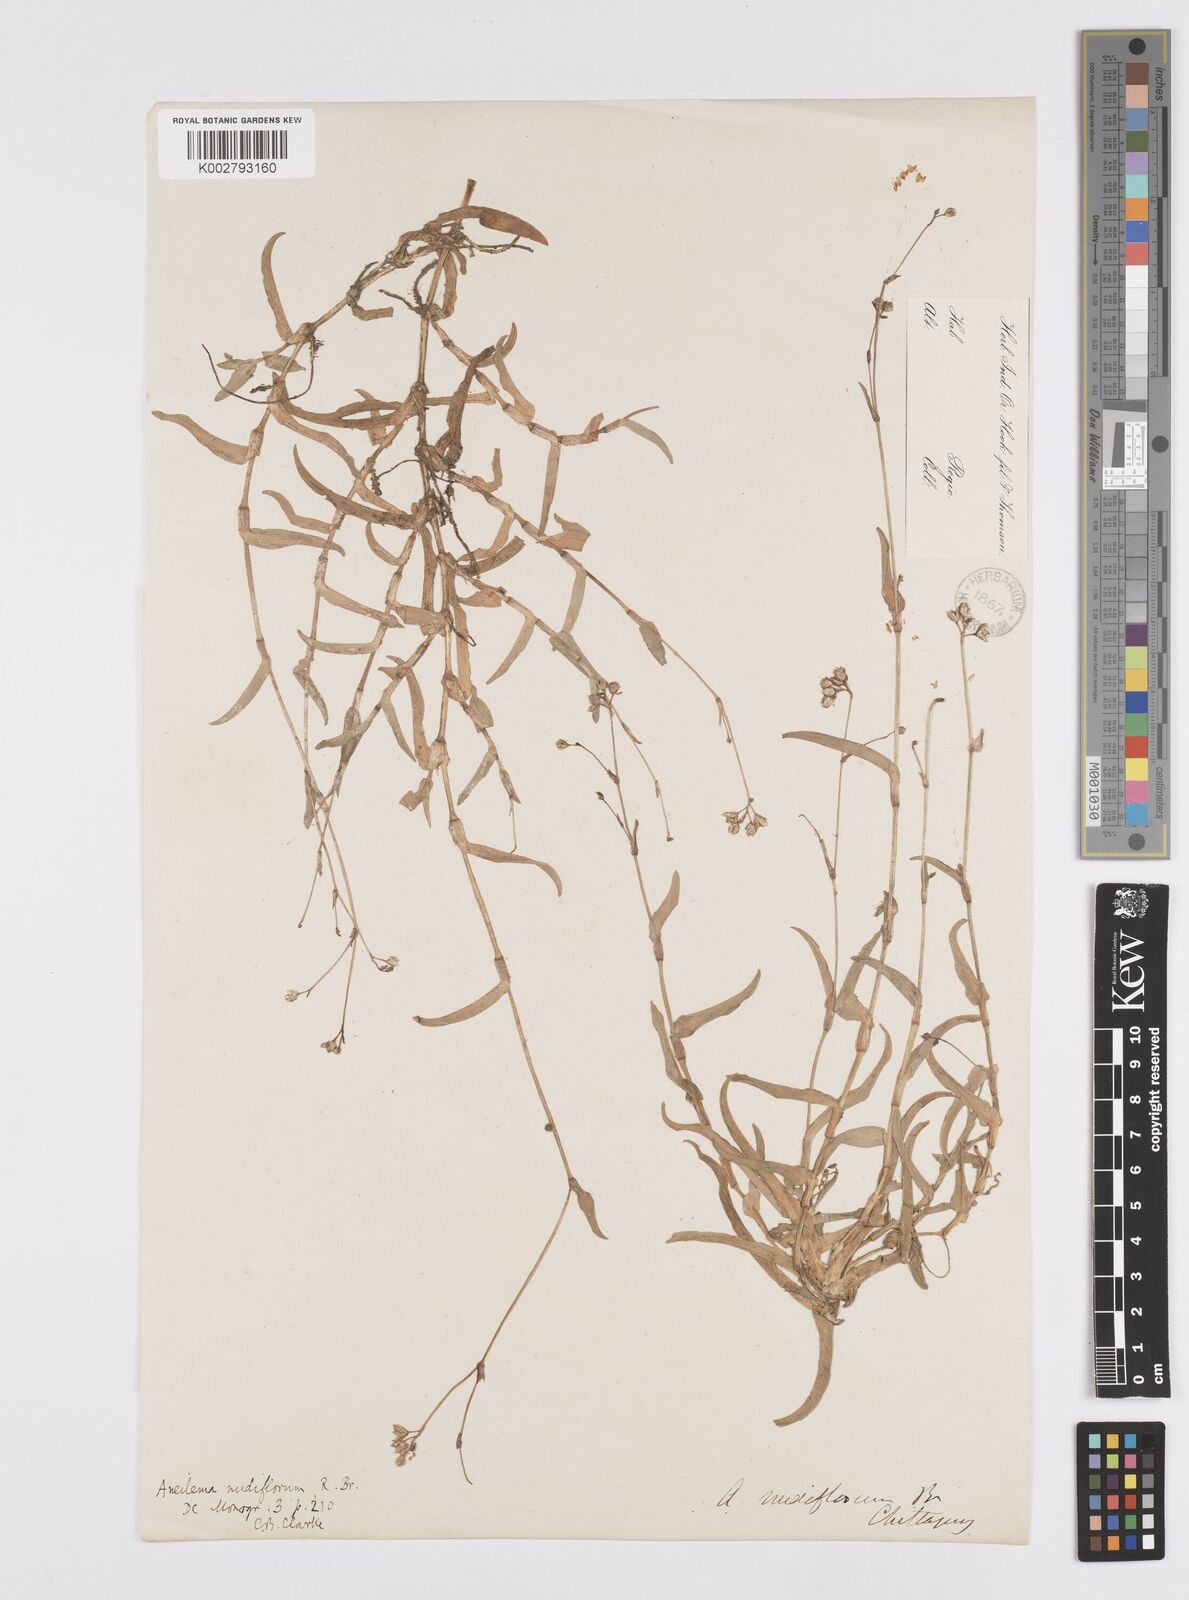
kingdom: Plantae
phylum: Tracheophyta
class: Liliopsida
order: Commelinales
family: Commelinaceae
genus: Murdannia
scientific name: Murdannia
